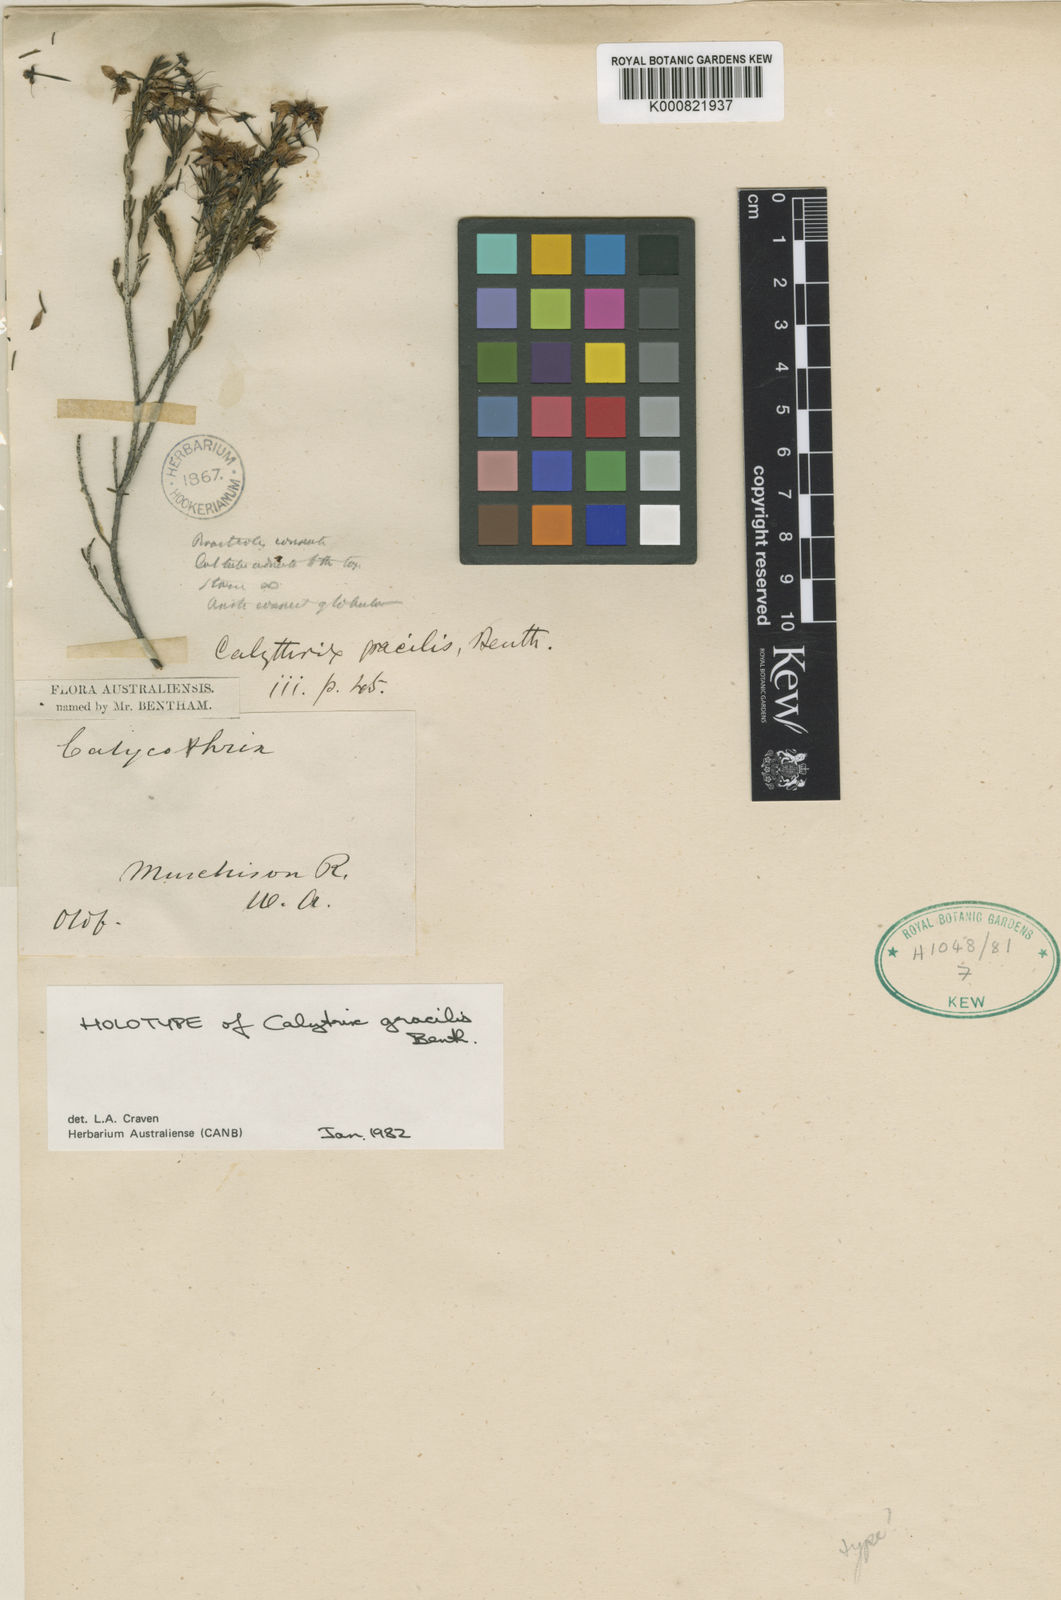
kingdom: Plantae
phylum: Tracheophyta
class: Magnoliopsida
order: Myrtales
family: Myrtaceae
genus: Calytrix
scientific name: Calytrix gracilis
